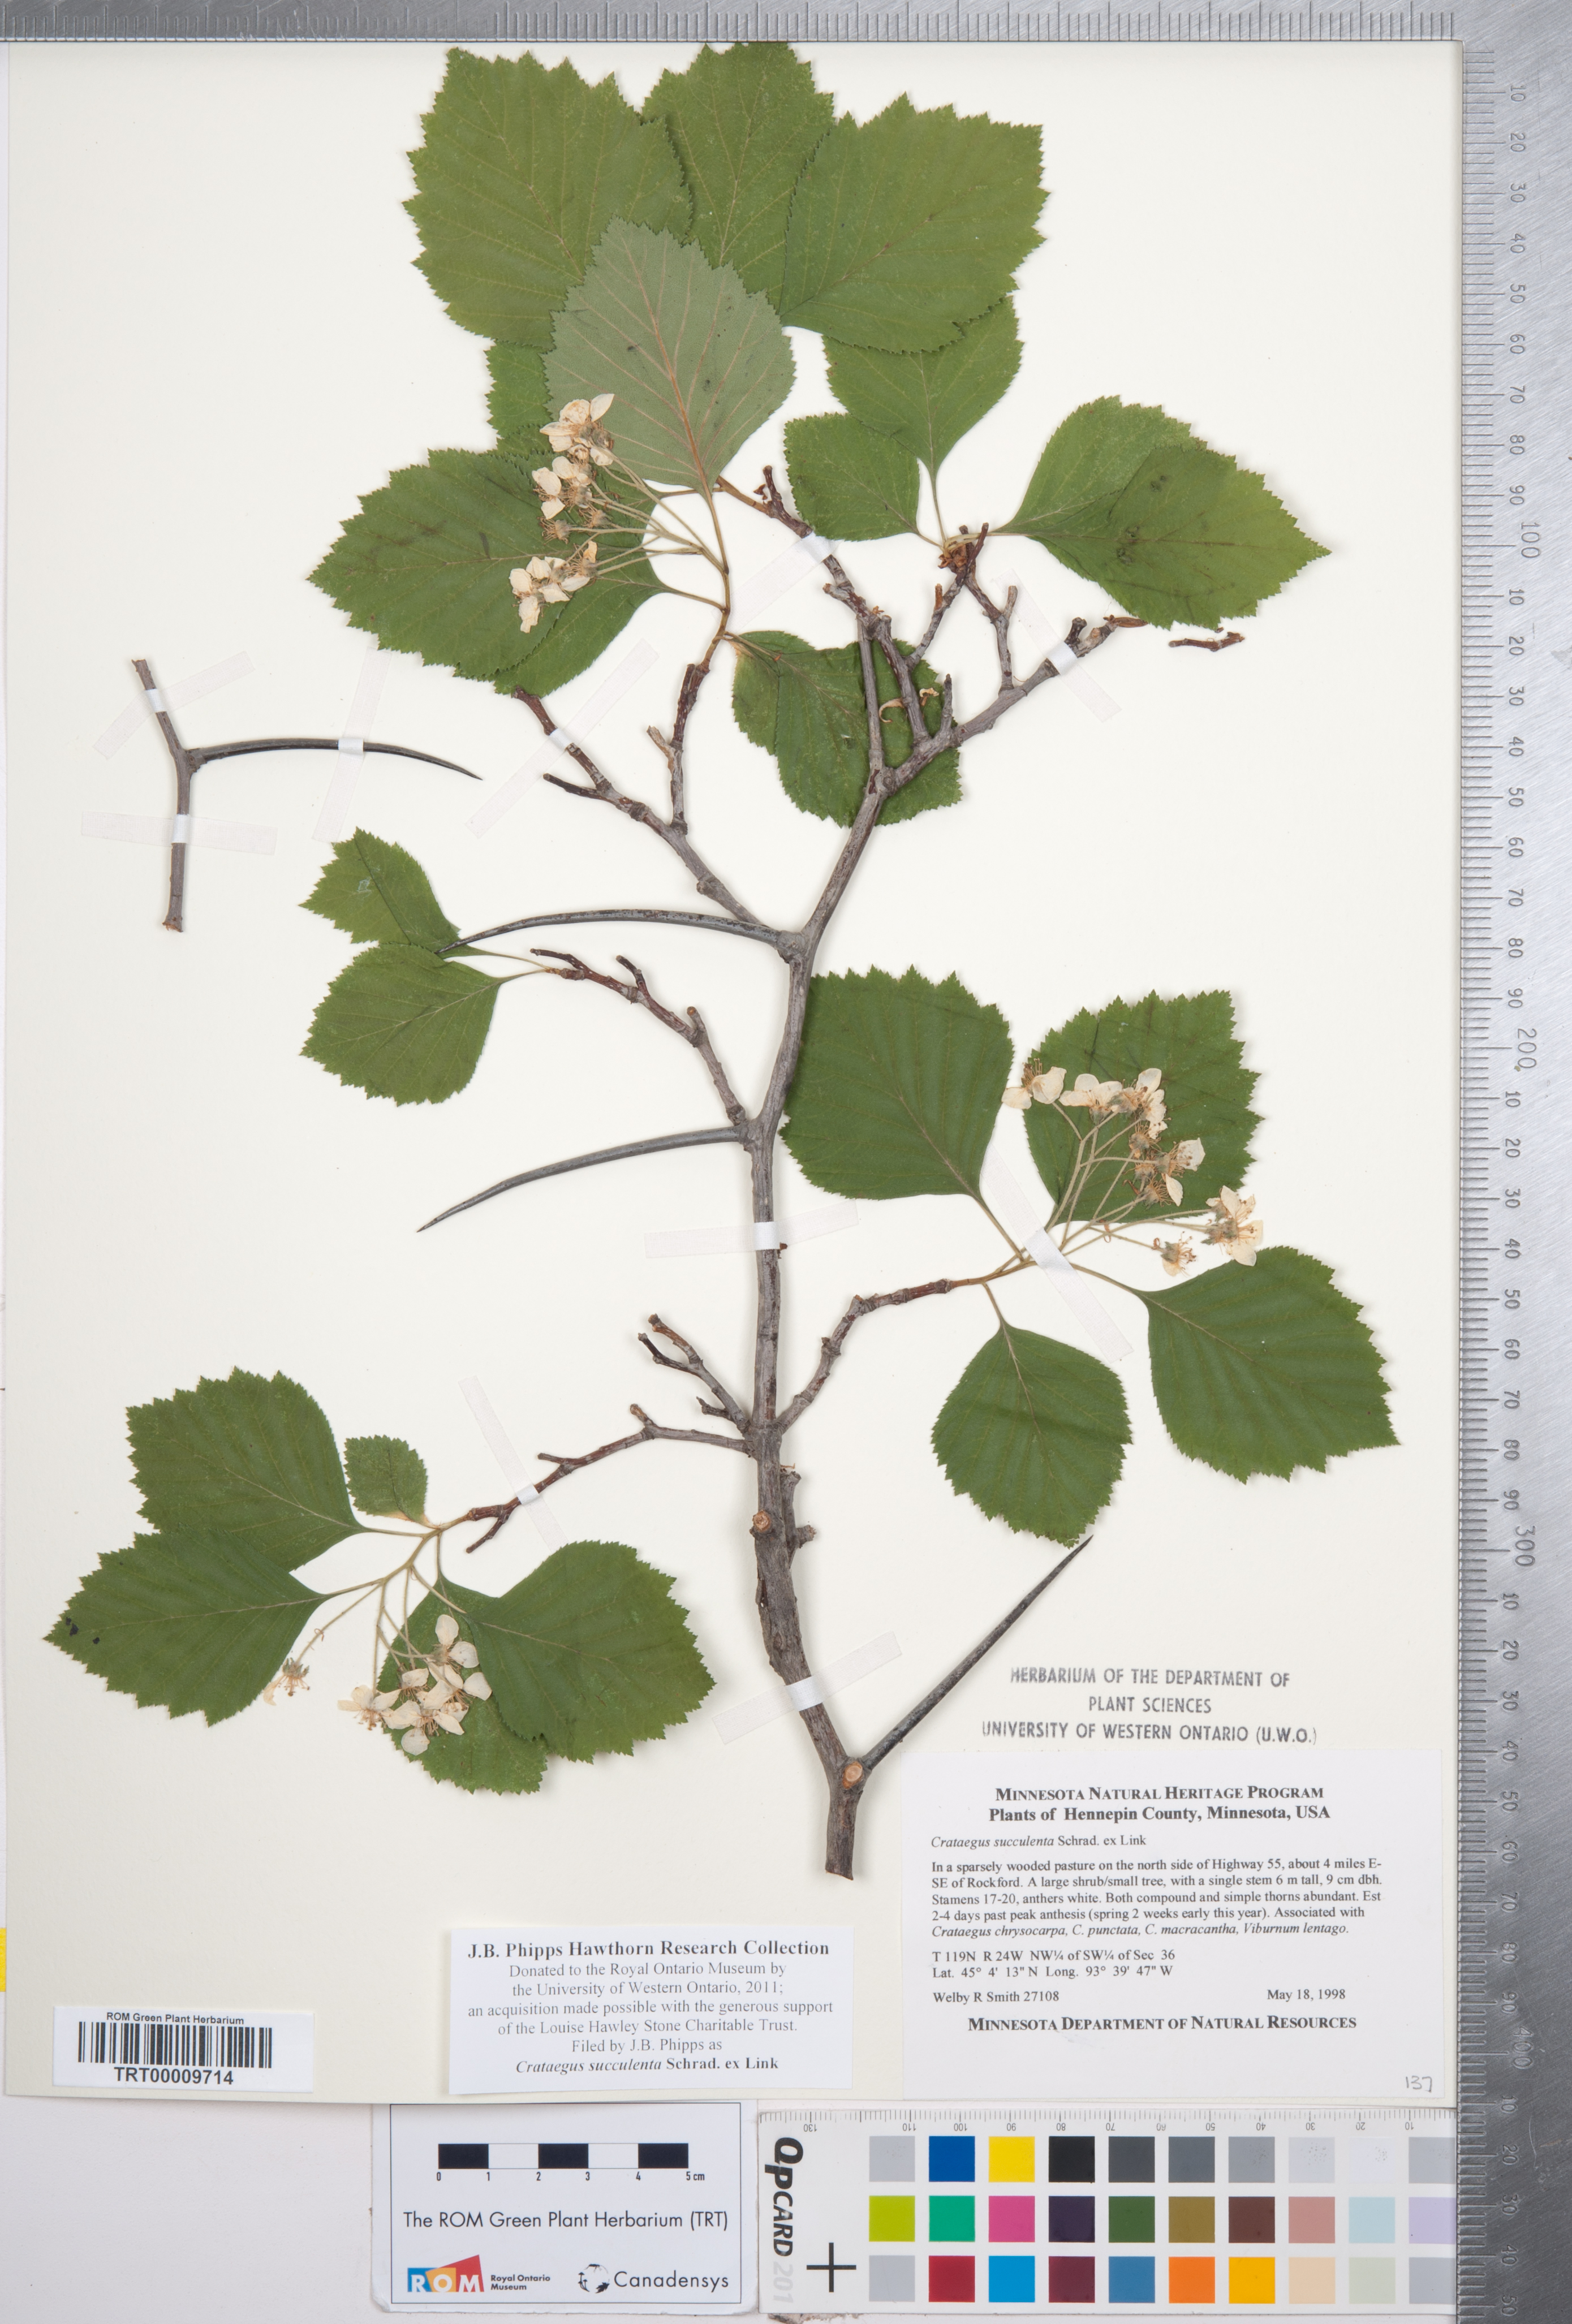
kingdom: Plantae
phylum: Tracheophyta
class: Magnoliopsida
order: Rosales
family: Rosaceae
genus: Crataegus
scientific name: Crataegus succulenta
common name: Fleshy hawthorn
